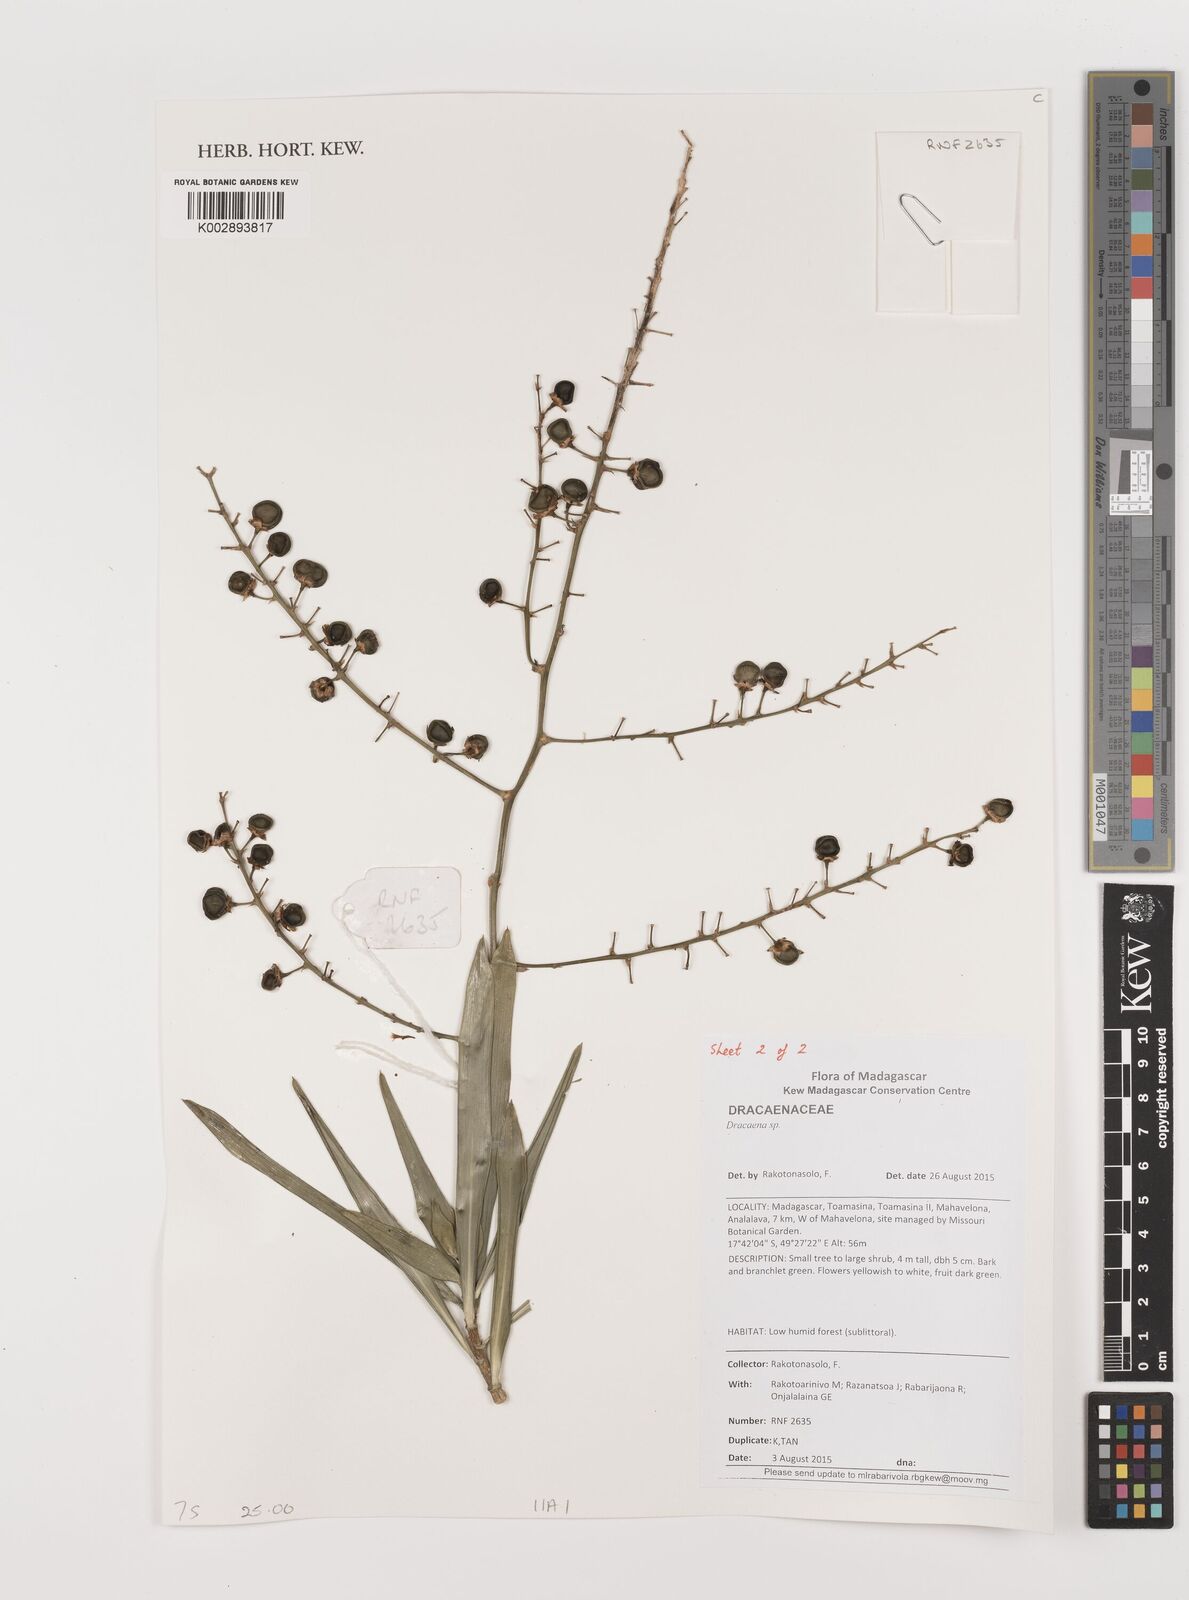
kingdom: Plantae
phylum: Tracheophyta
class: Liliopsida
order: Asparagales
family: Asparagaceae
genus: Dracaena
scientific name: Dracaena
